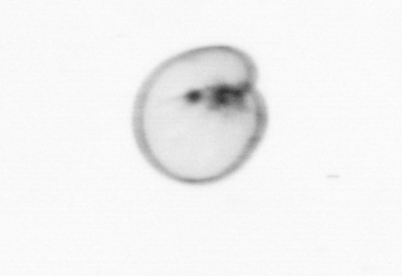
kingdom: Chromista
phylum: Myzozoa
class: Dinophyceae
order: Noctilucales
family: Noctilucaceae
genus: Noctiluca
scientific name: Noctiluca scintillans
